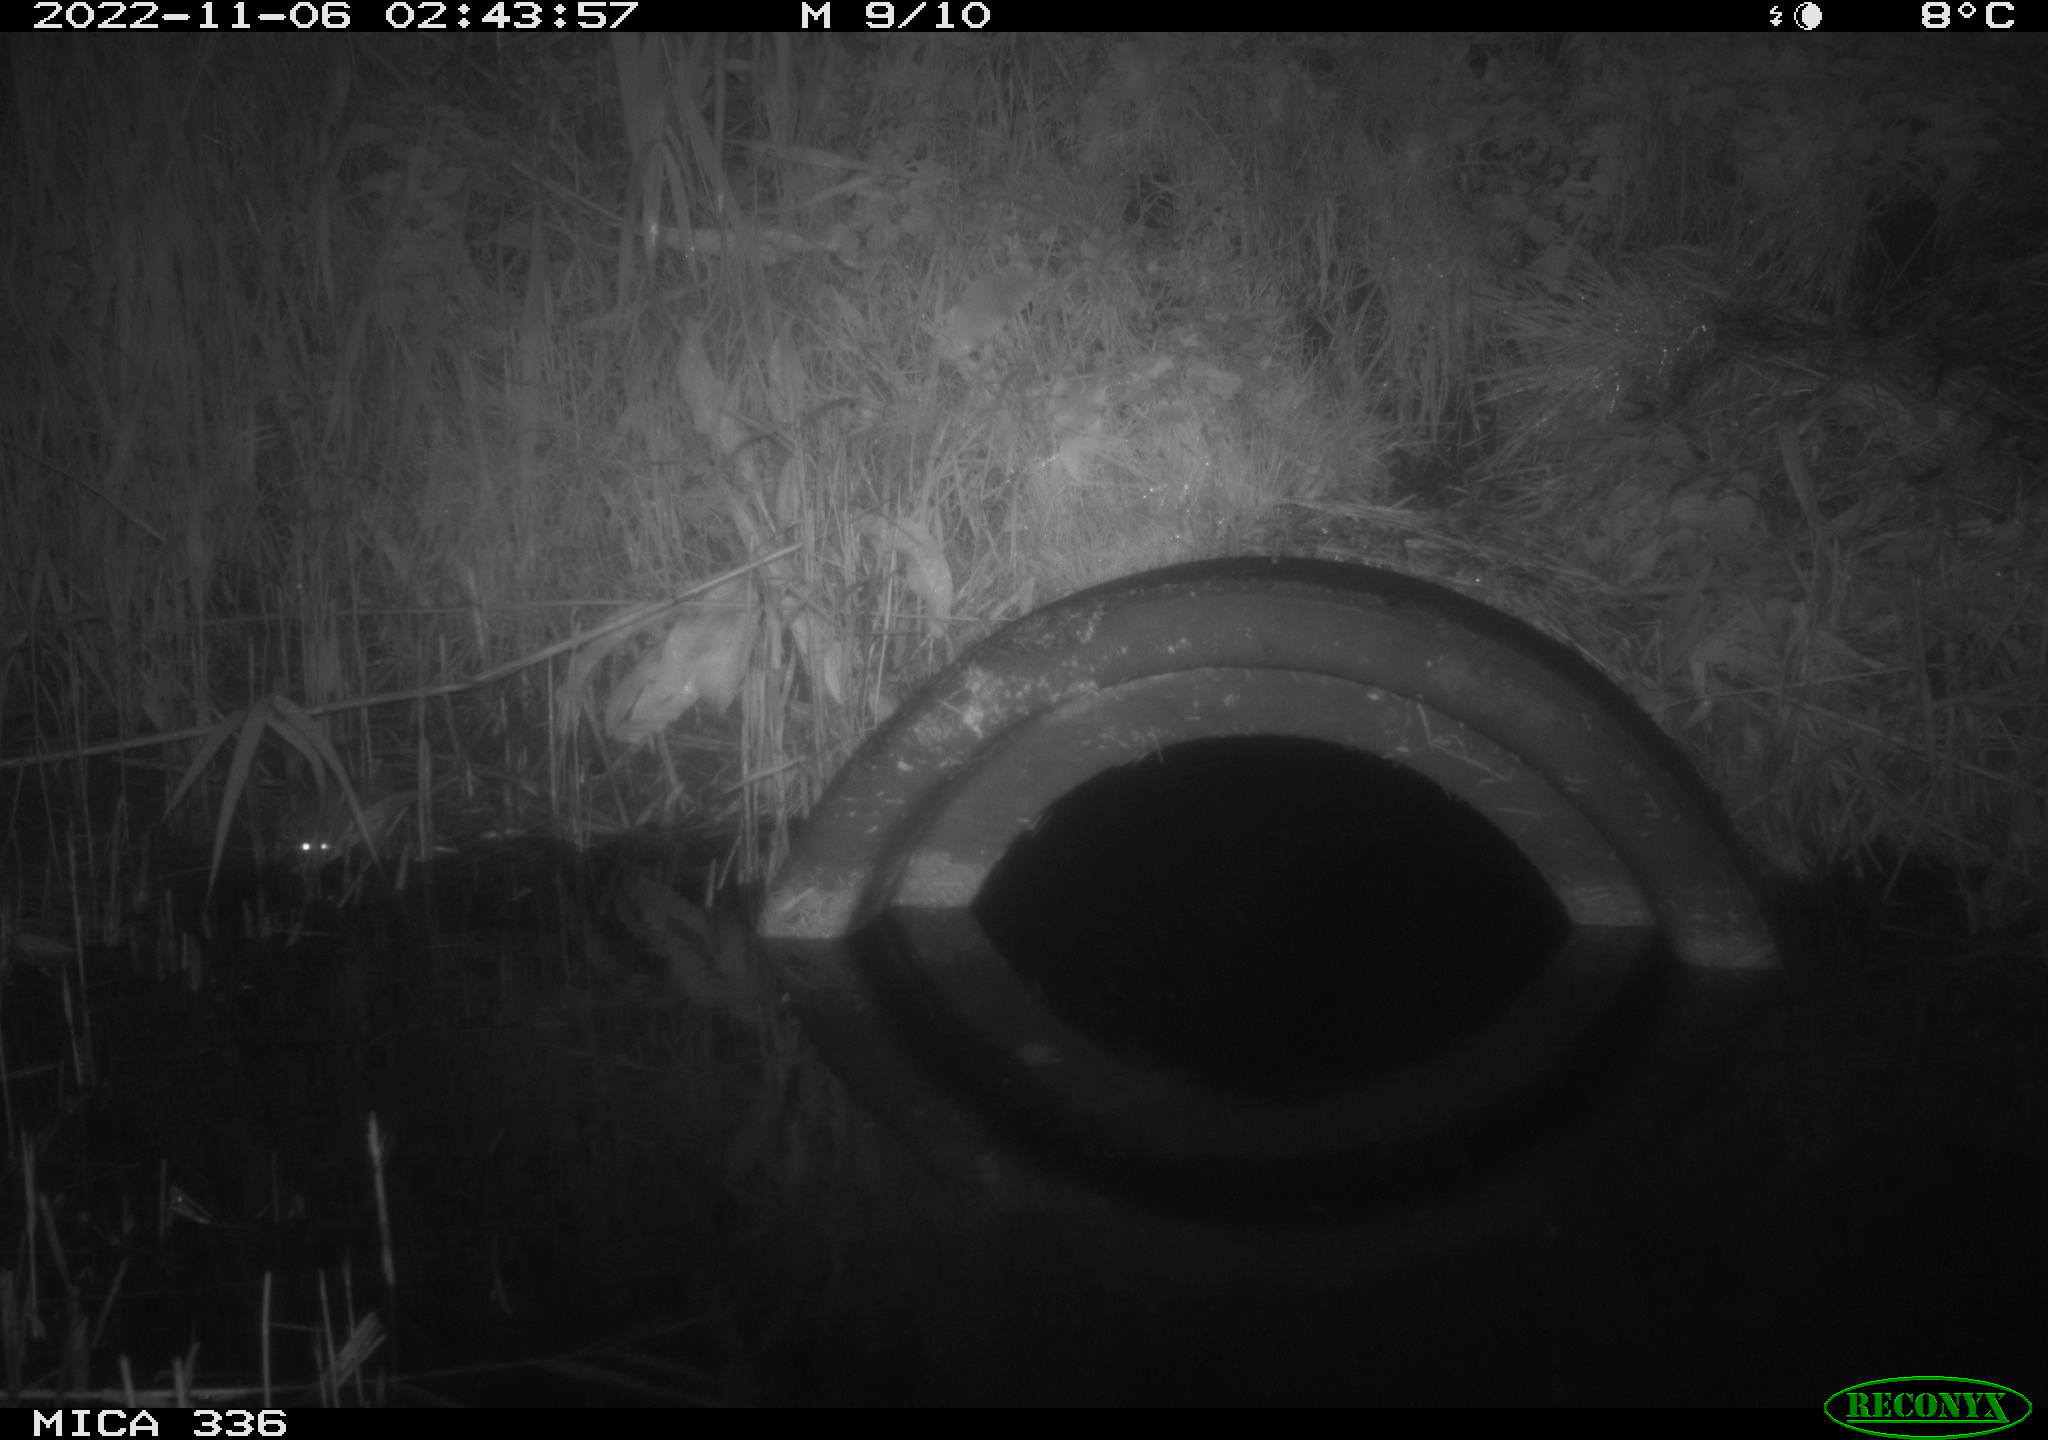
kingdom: Animalia
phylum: Chordata
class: Mammalia
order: Rodentia
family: Muridae
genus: Rattus
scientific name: Rattus norvegicus
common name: Brown rat
